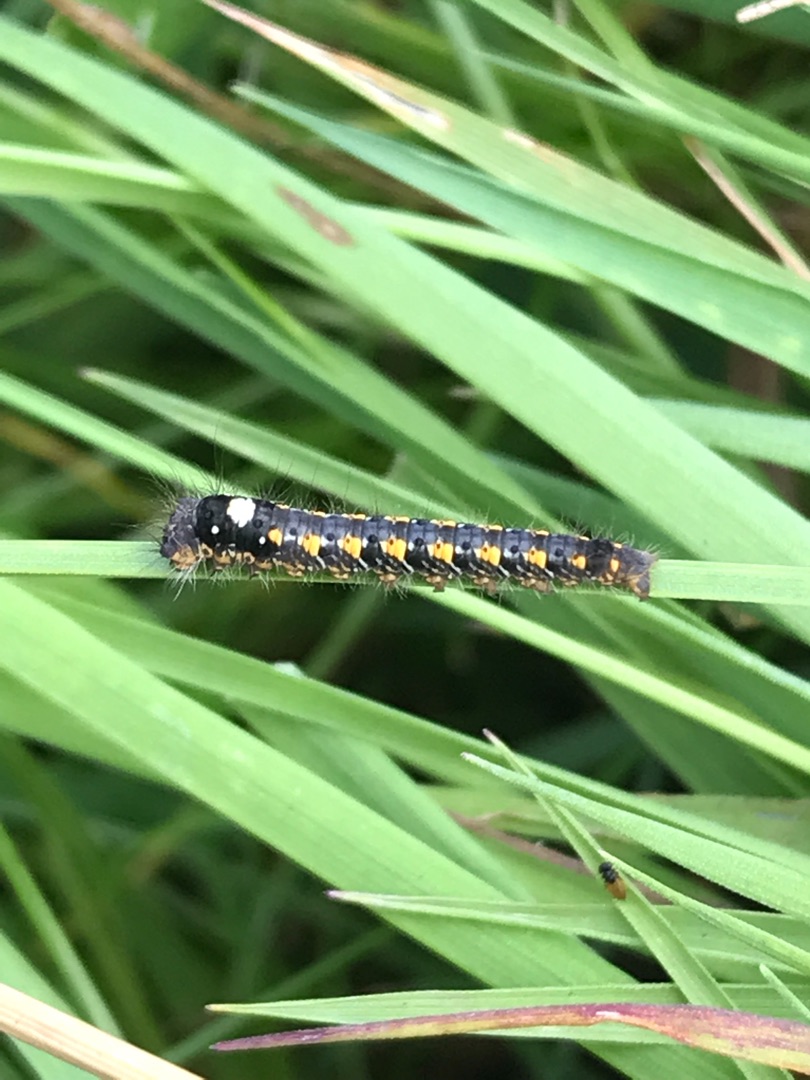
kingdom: Animalia
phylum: Arthropoda
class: Insecta
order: Lepidoptera
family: Lasiocampidae
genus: Euthrix
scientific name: Euthrix potatoria
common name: Græsspinder
